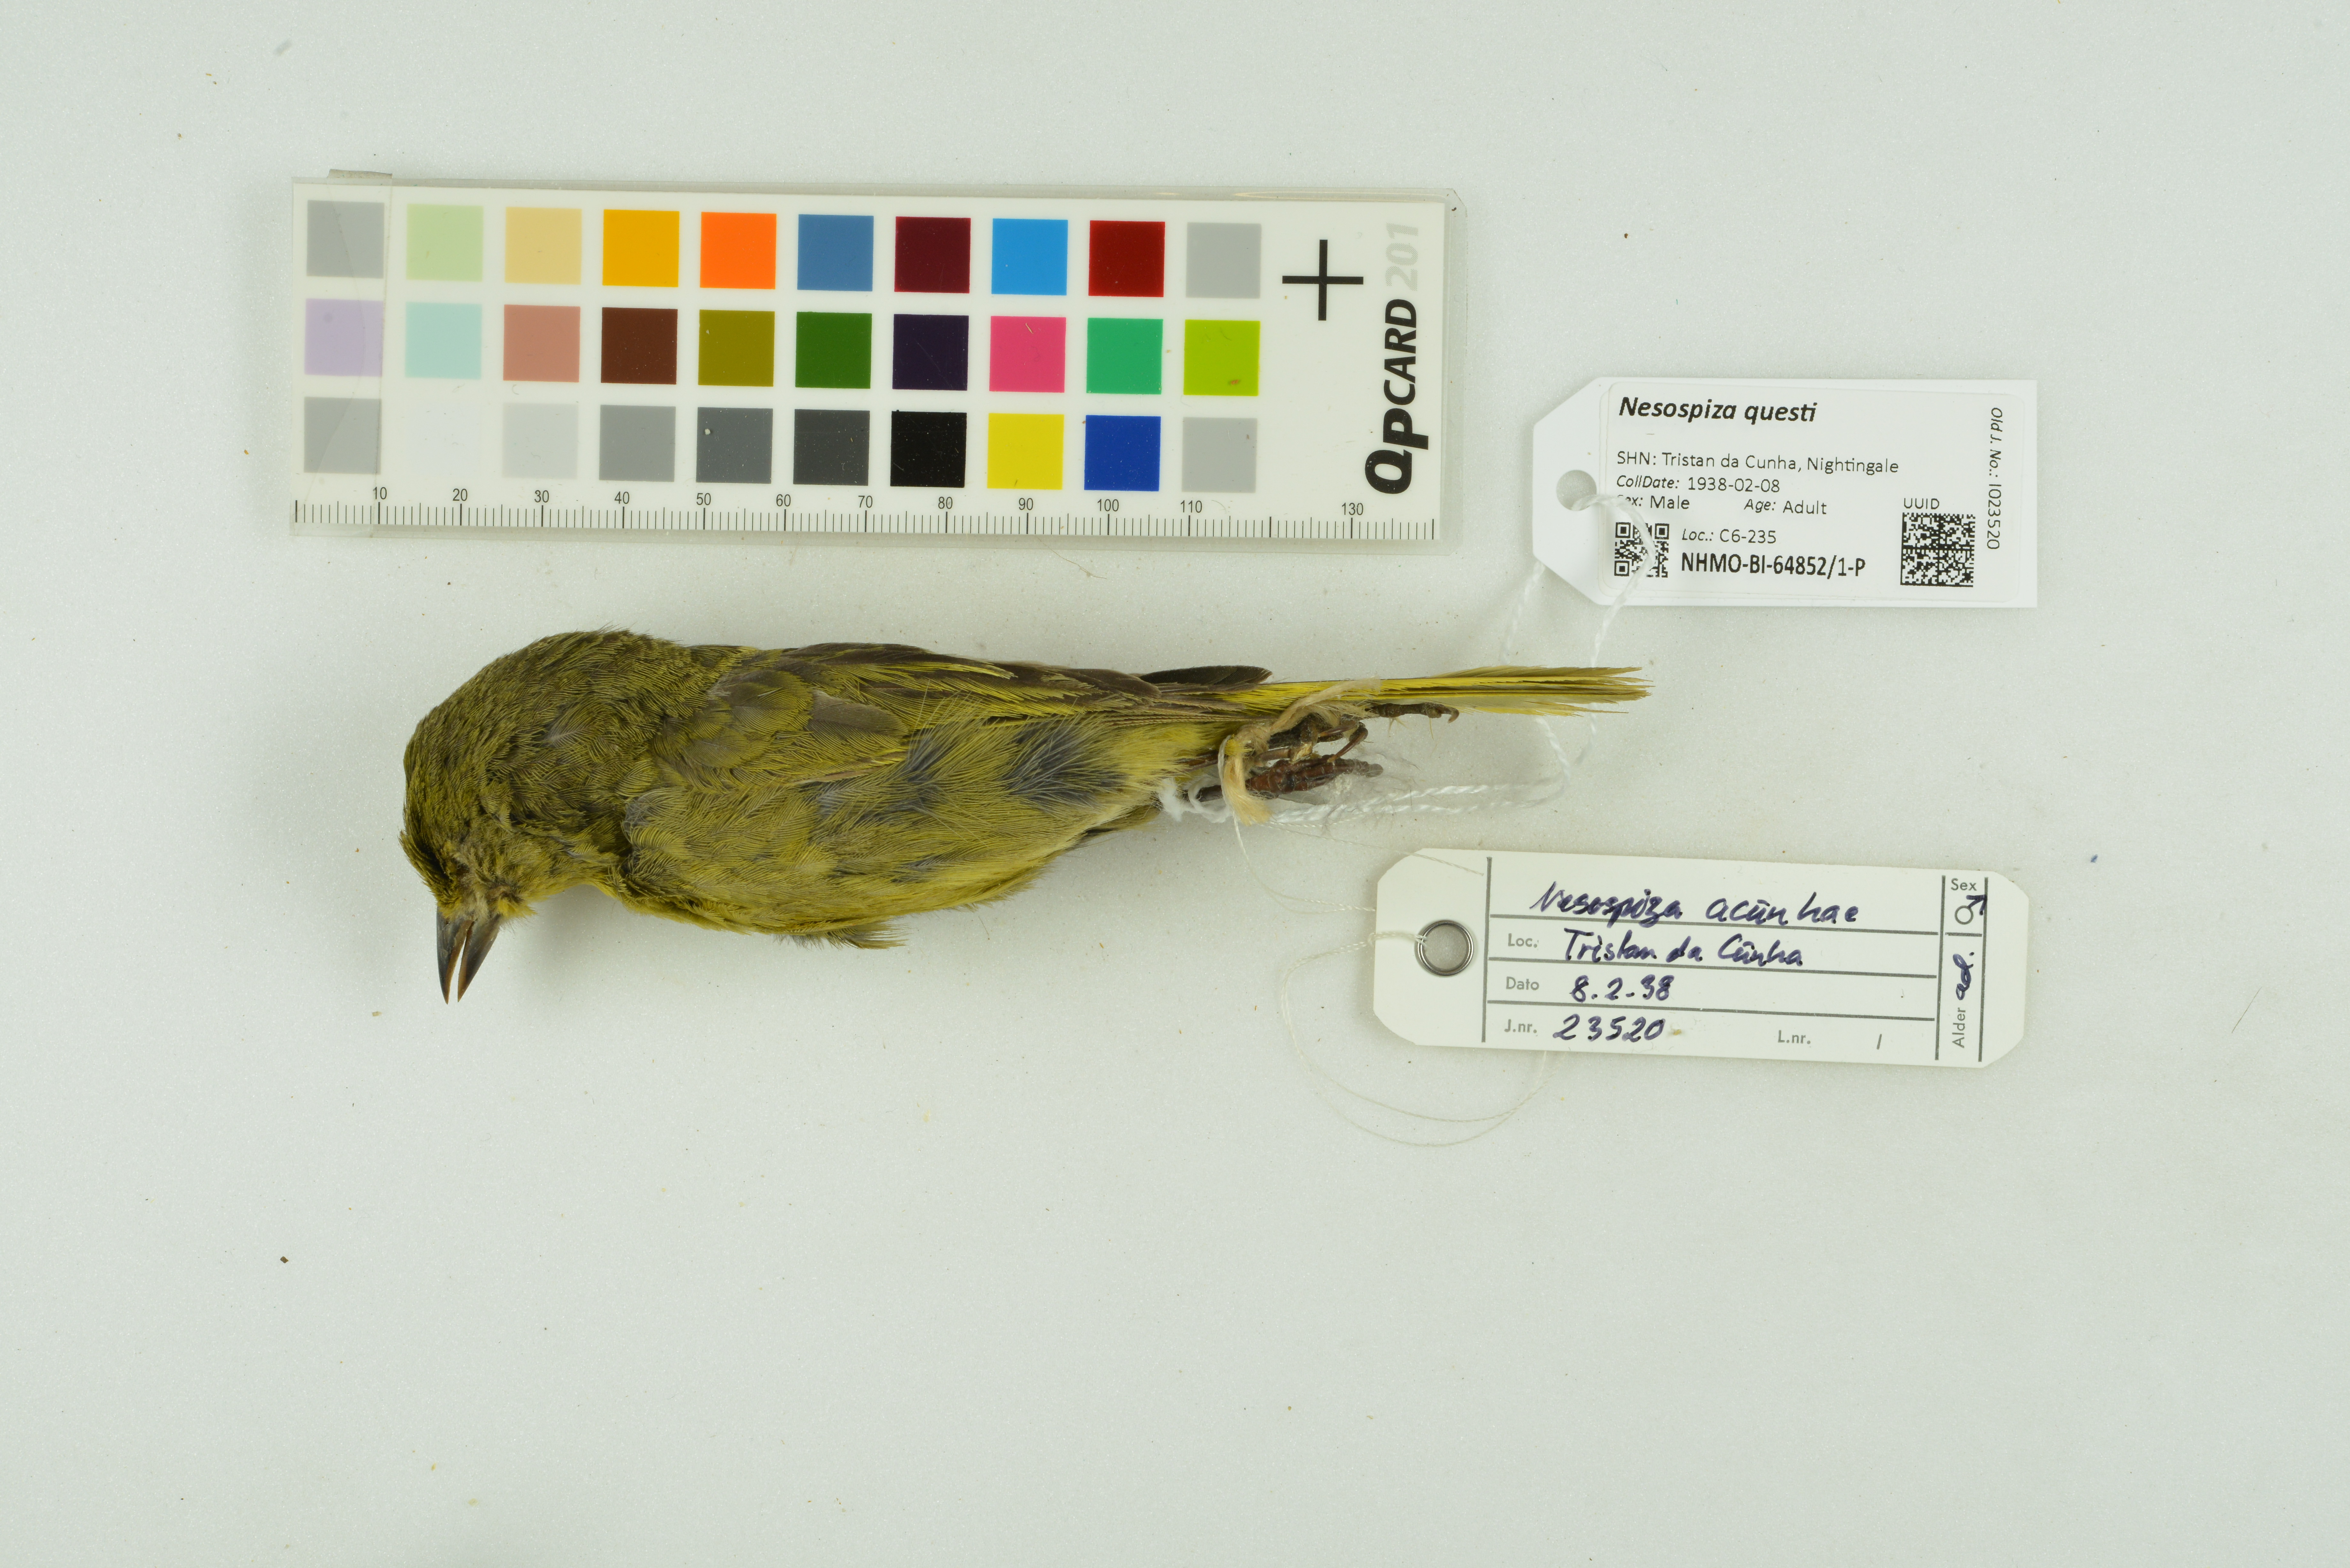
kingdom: Animalia
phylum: Chordata
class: Aves
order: Passeriformes
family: Thraupidae
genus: Nesospiza
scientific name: Nesospiza questi
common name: Nightingale island finch
